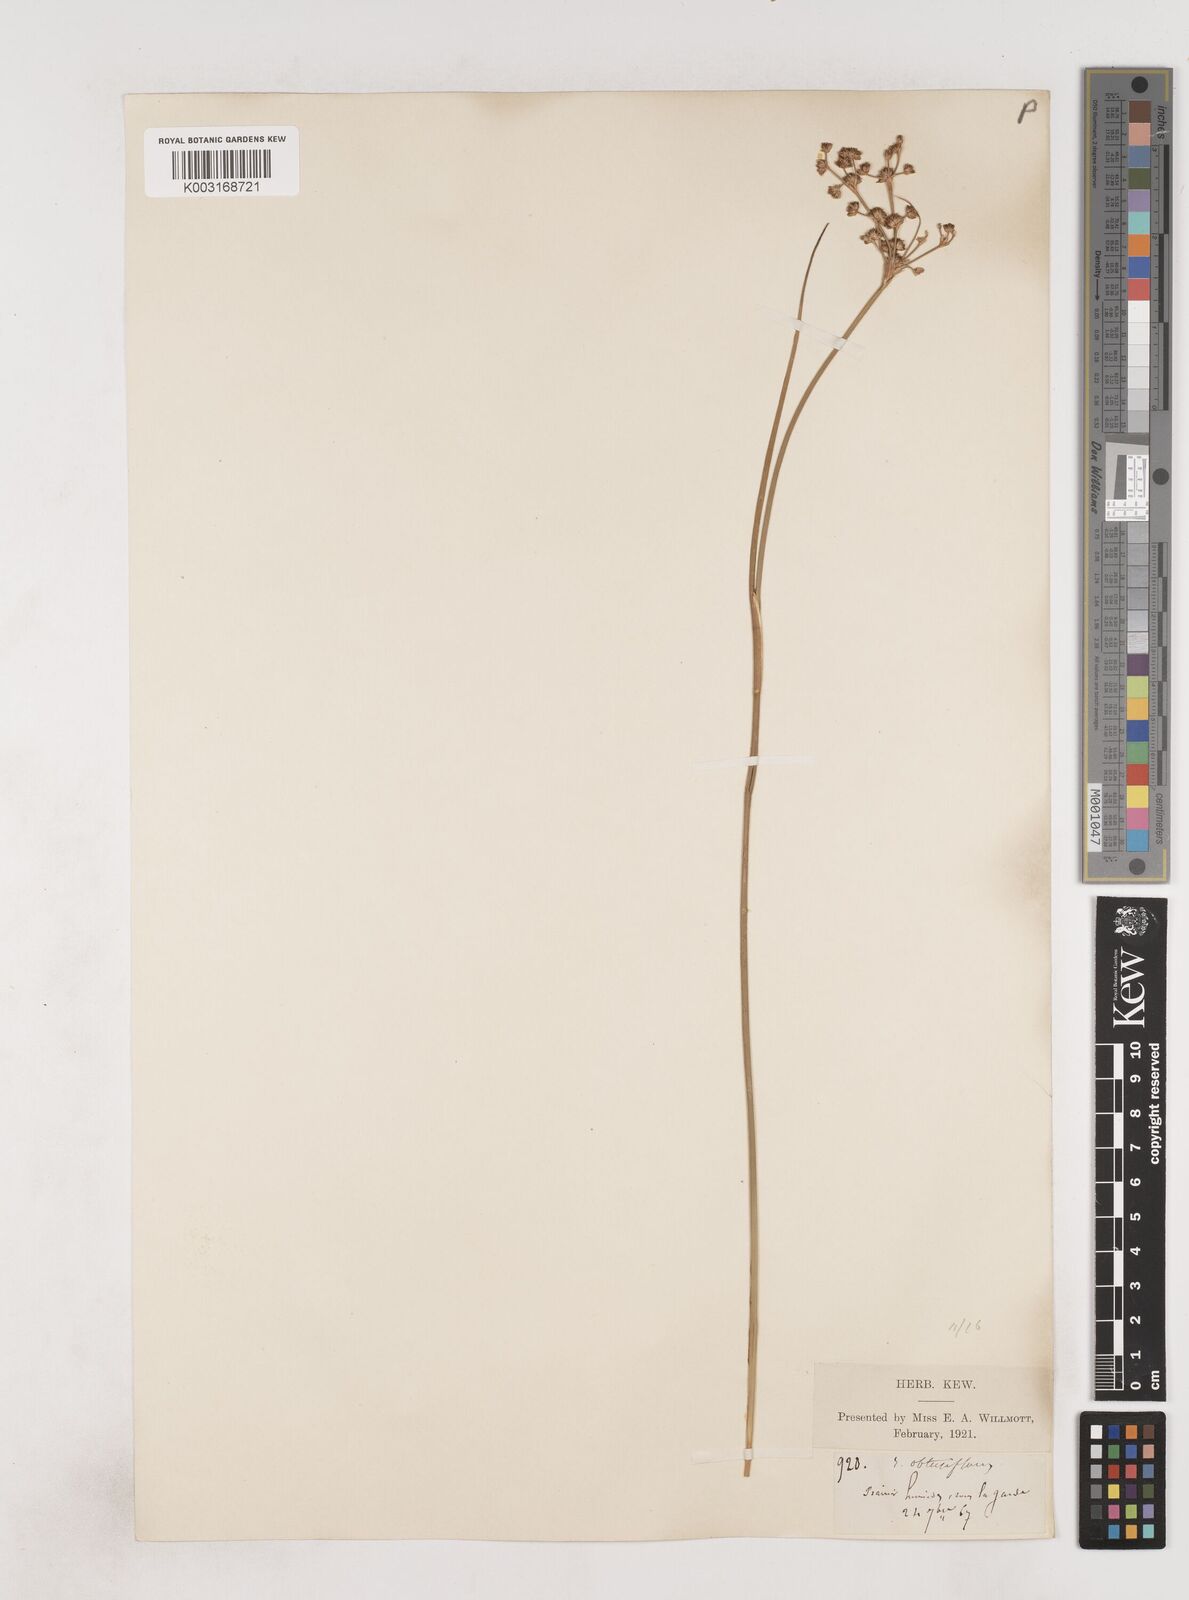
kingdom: Plantae
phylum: Tracheophyta
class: Liliopsida
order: Poales
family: Juncaceae
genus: Juncus
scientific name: Juncus subnodulosus
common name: Blunt-flowered rush
